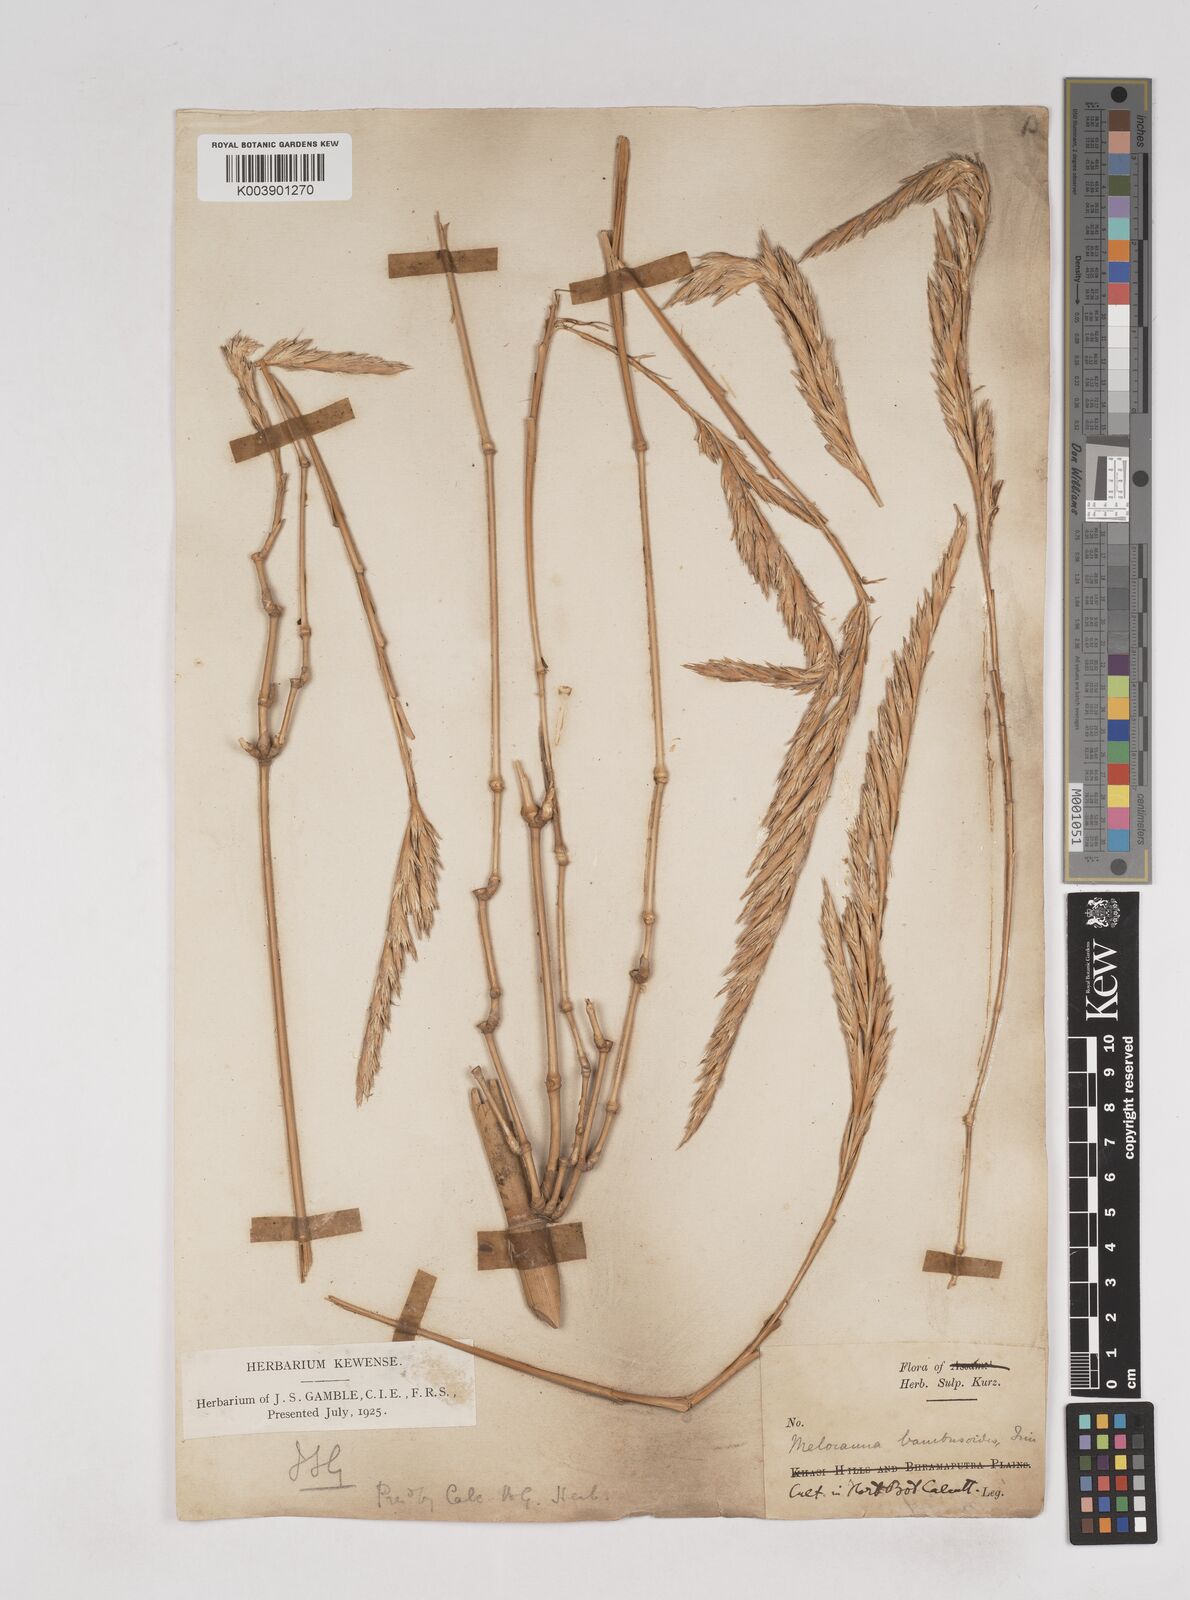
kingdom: Plantae
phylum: Tracheophyta
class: Liliopsida
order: Poales
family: Poaceae
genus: Melocanna
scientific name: Melocanna baccifera
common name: Berry bamboo
